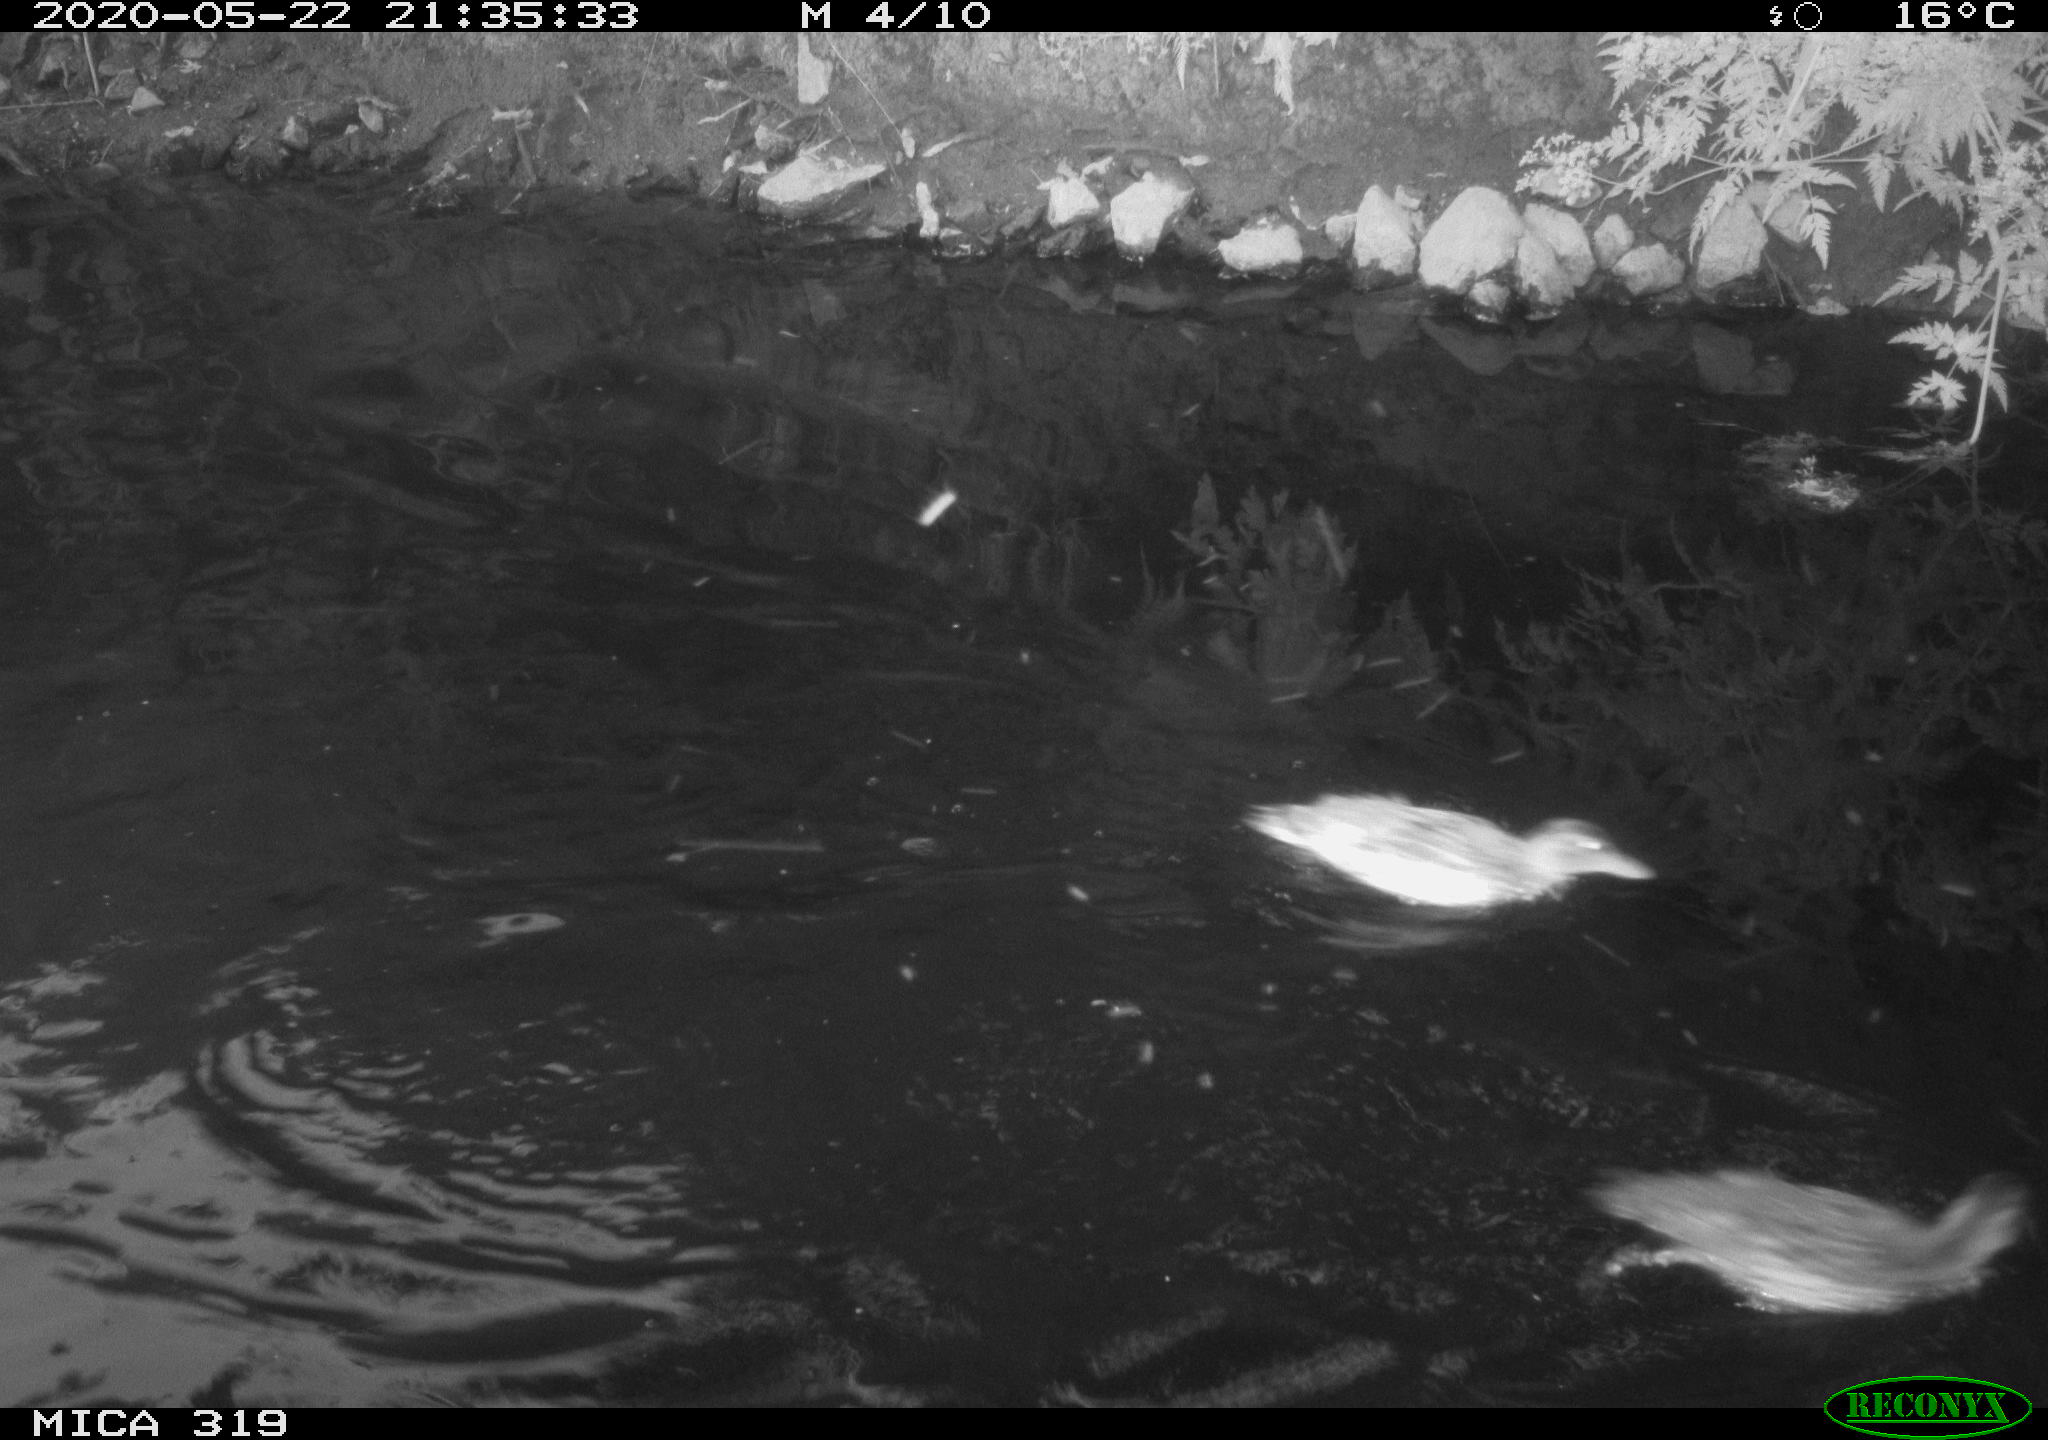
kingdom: Animalia
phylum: Chordata
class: Aves
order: Anseriformes
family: Anatidae
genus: Anas
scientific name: Anas platyrhynchos
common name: Mallard
